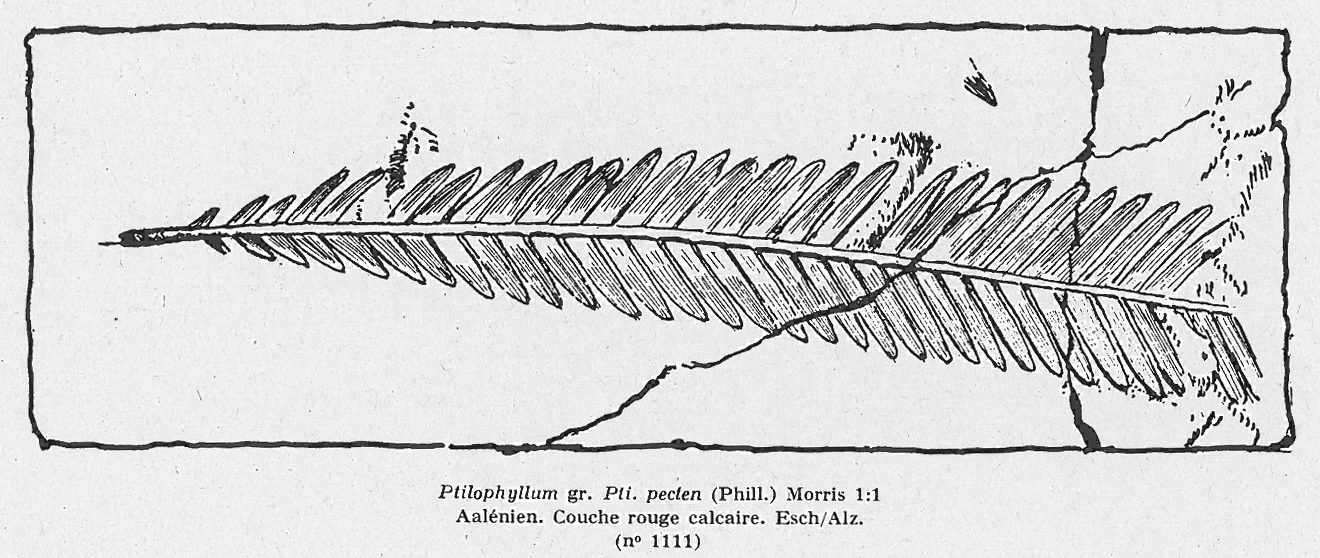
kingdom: Plantae
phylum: Tracheophyta
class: Cycadopsida
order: Cycadales
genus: Ptilophyllum
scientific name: Ptilophyllum Cycadites pecten
